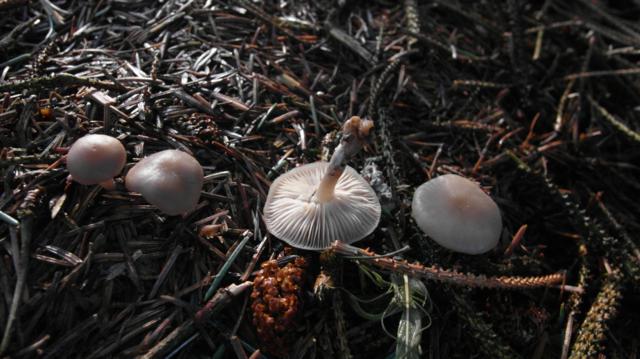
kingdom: Fungi
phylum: Basidiomycota
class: Agaricomycetes
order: Agaricales
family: Tricholomataceae
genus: Clitocybe
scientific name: Clitocybe metachroa
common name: grå tragthat
